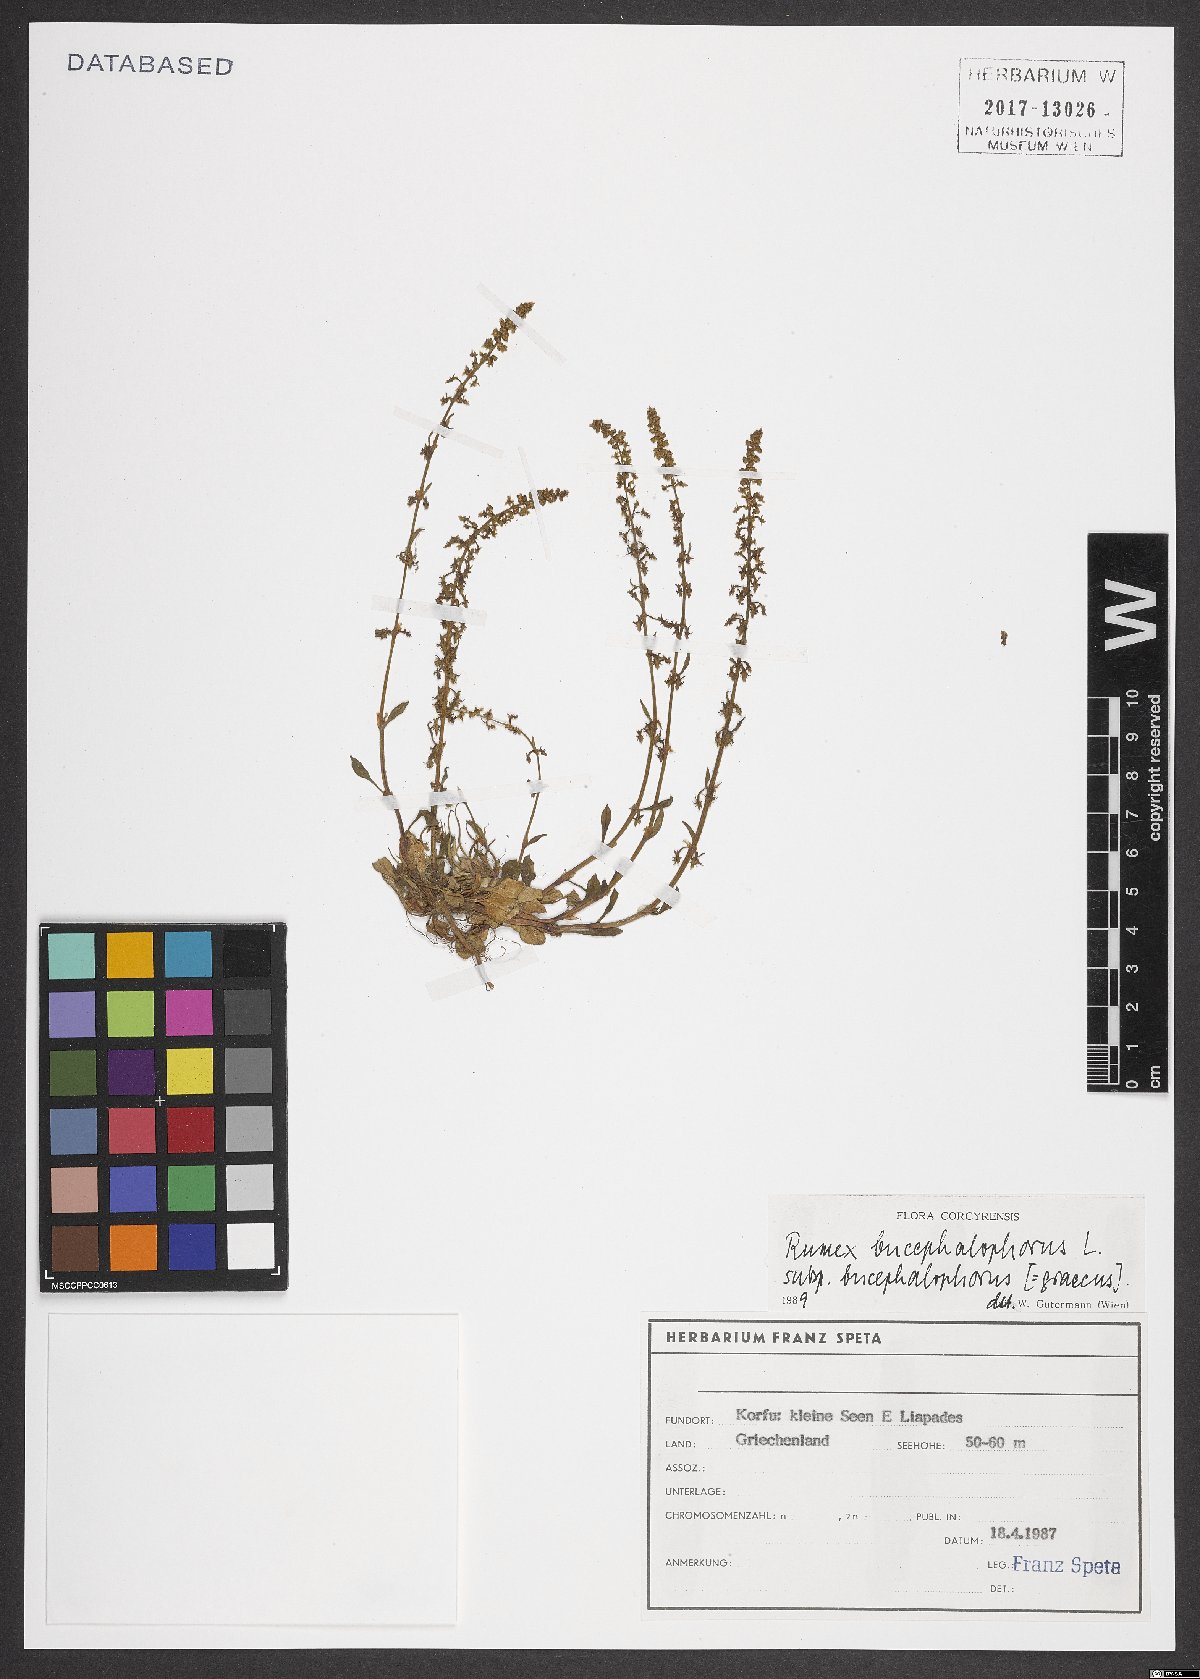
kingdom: Plantae
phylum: Tracheophyta
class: Magnoliopsida
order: Caryophyllales
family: Polygonaceae
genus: Rumex
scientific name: Rumex bucephalophorus
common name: Red dock
